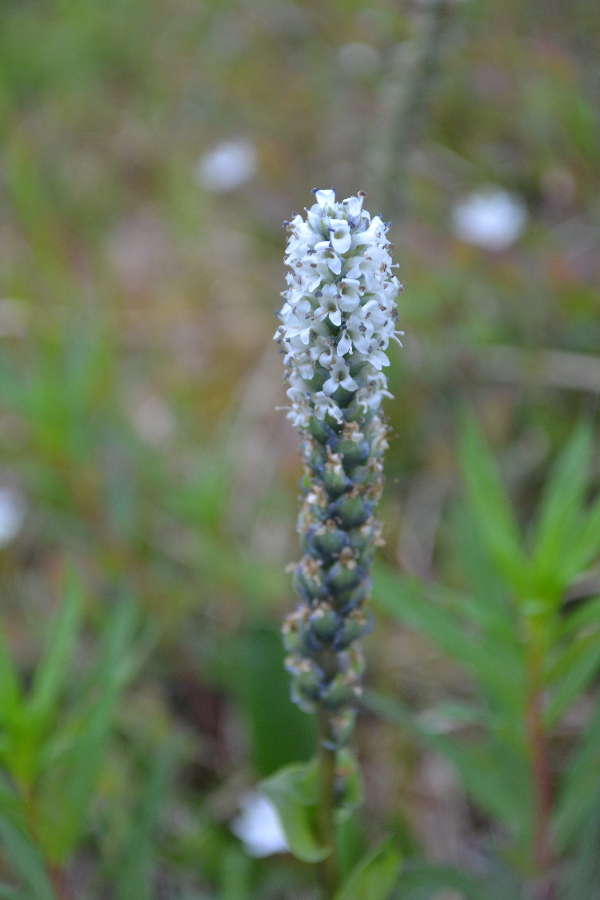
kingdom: Plantae
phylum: Tracheophyta
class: Magnoliopsida
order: Lamiales
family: Plantaginaceae
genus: Lagotis
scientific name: Lagotis glauca
